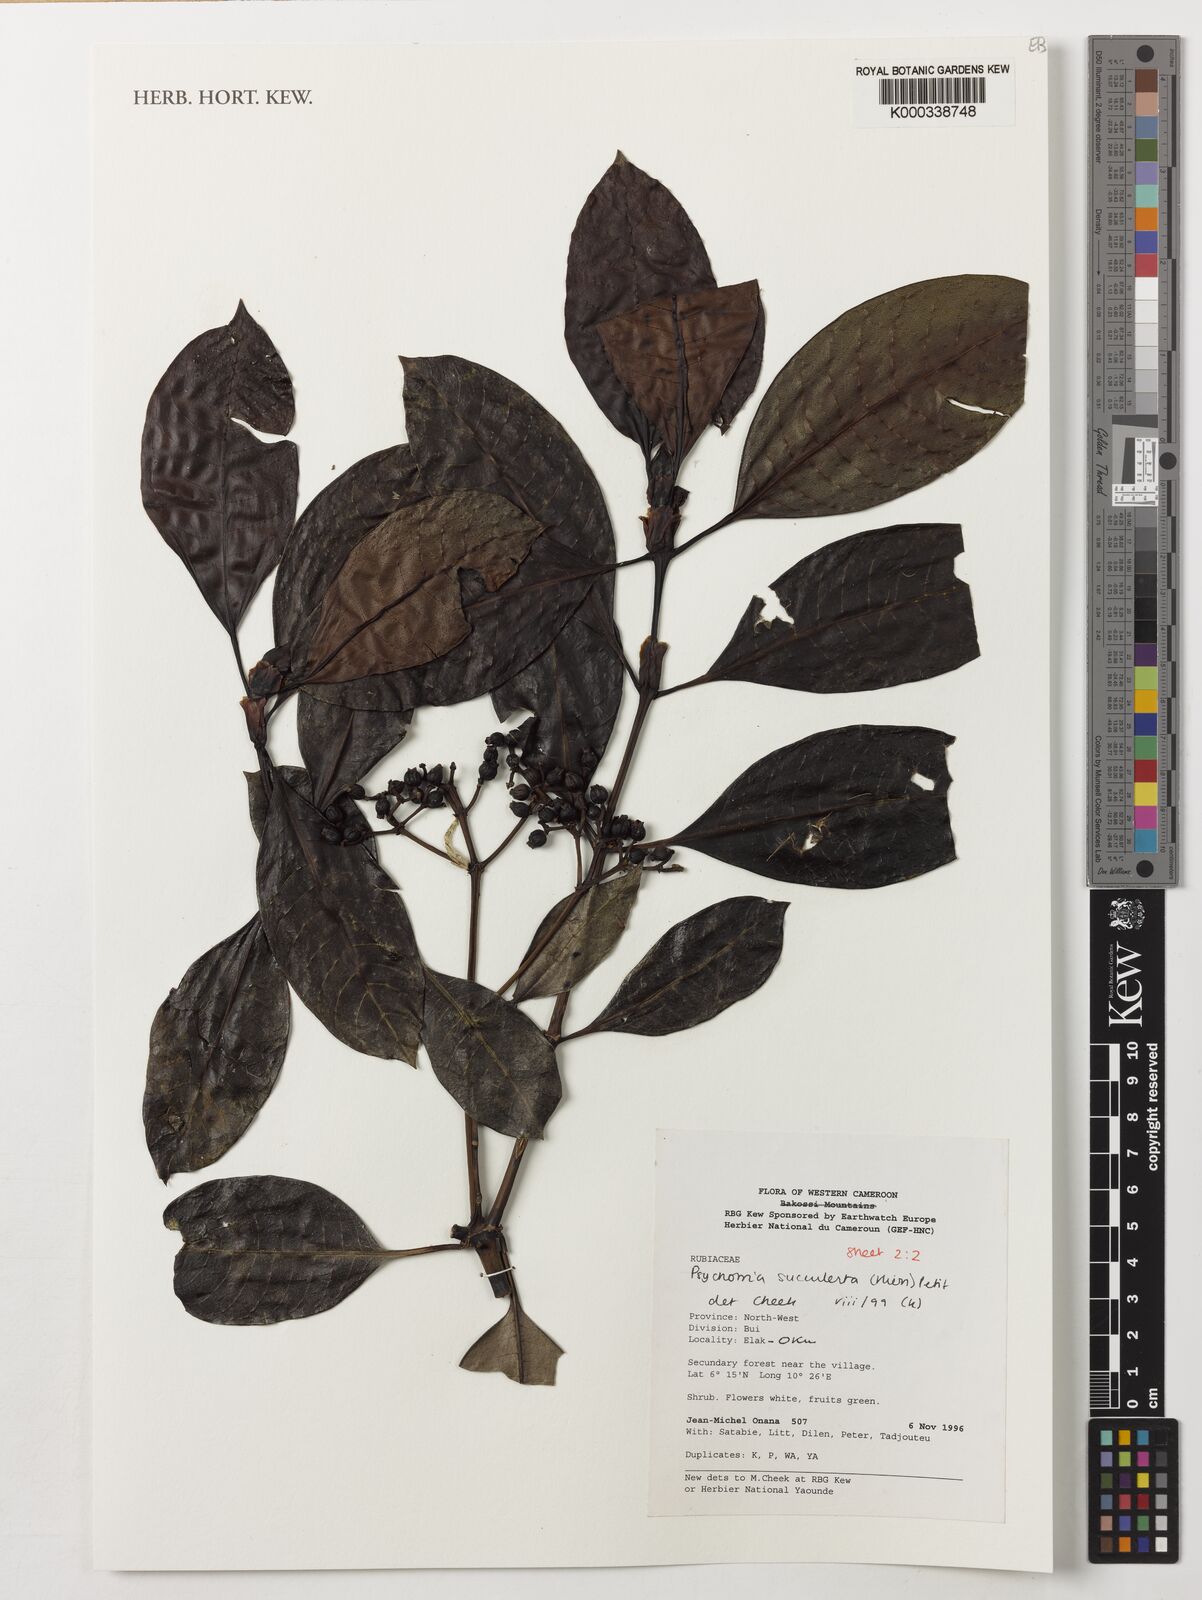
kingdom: Plantae
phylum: Tracheophyta
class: Magnoliopsida
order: Gentianales
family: Rubiaceae
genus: Psychotria
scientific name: Psychotria succulenta
